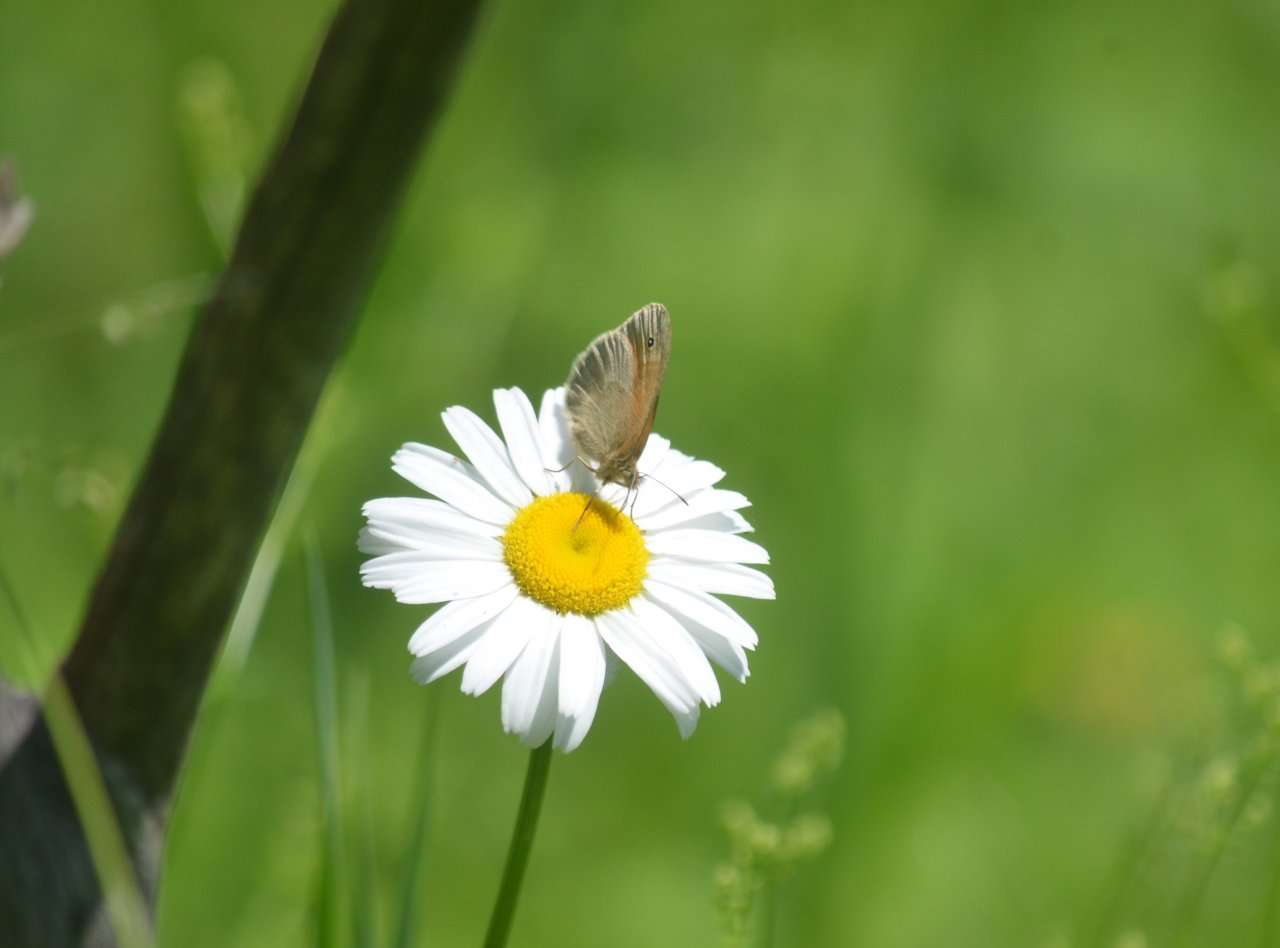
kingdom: Animalia
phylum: Arthropoda
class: Insecta
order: Lepidoptera
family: Nymphalidae
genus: Coenonympha
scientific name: Coenonympha tullia
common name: Large Heath
